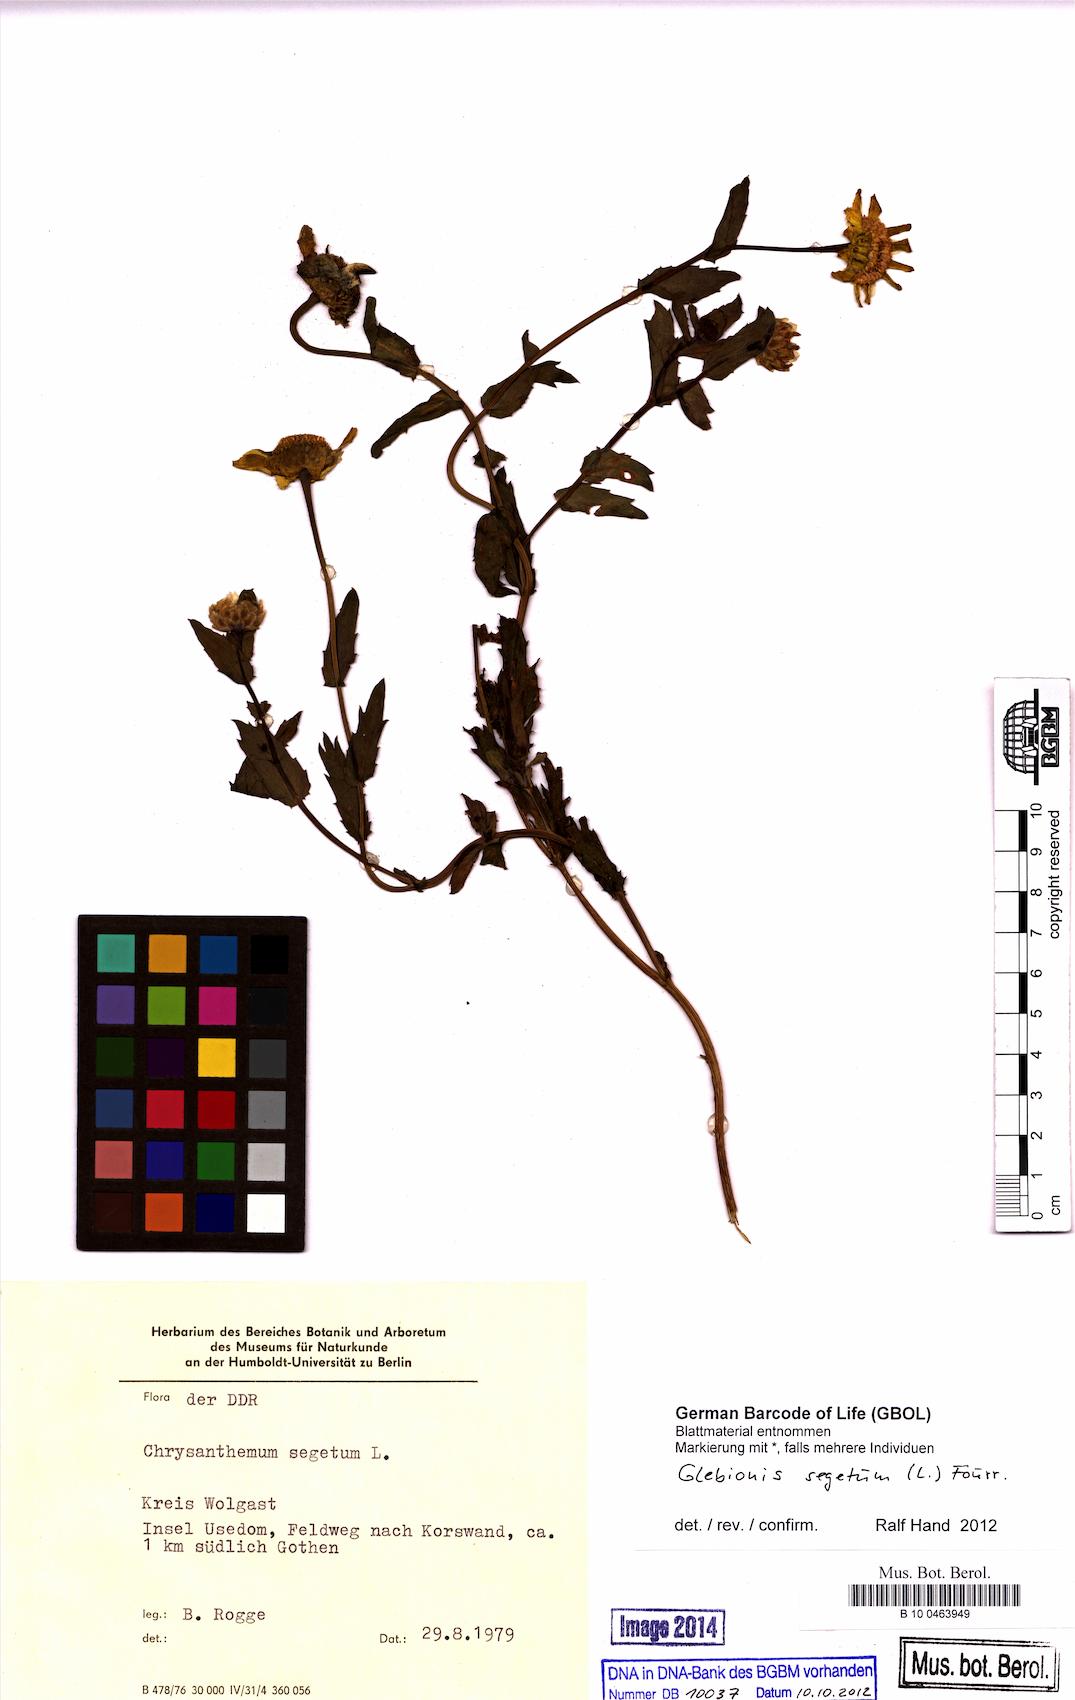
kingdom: Plantae
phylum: Tracheophyta
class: Magnoliopsida
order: Asterales
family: Asteraceae
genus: Glebionis
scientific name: Glebionis segetum
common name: Corndaisy
